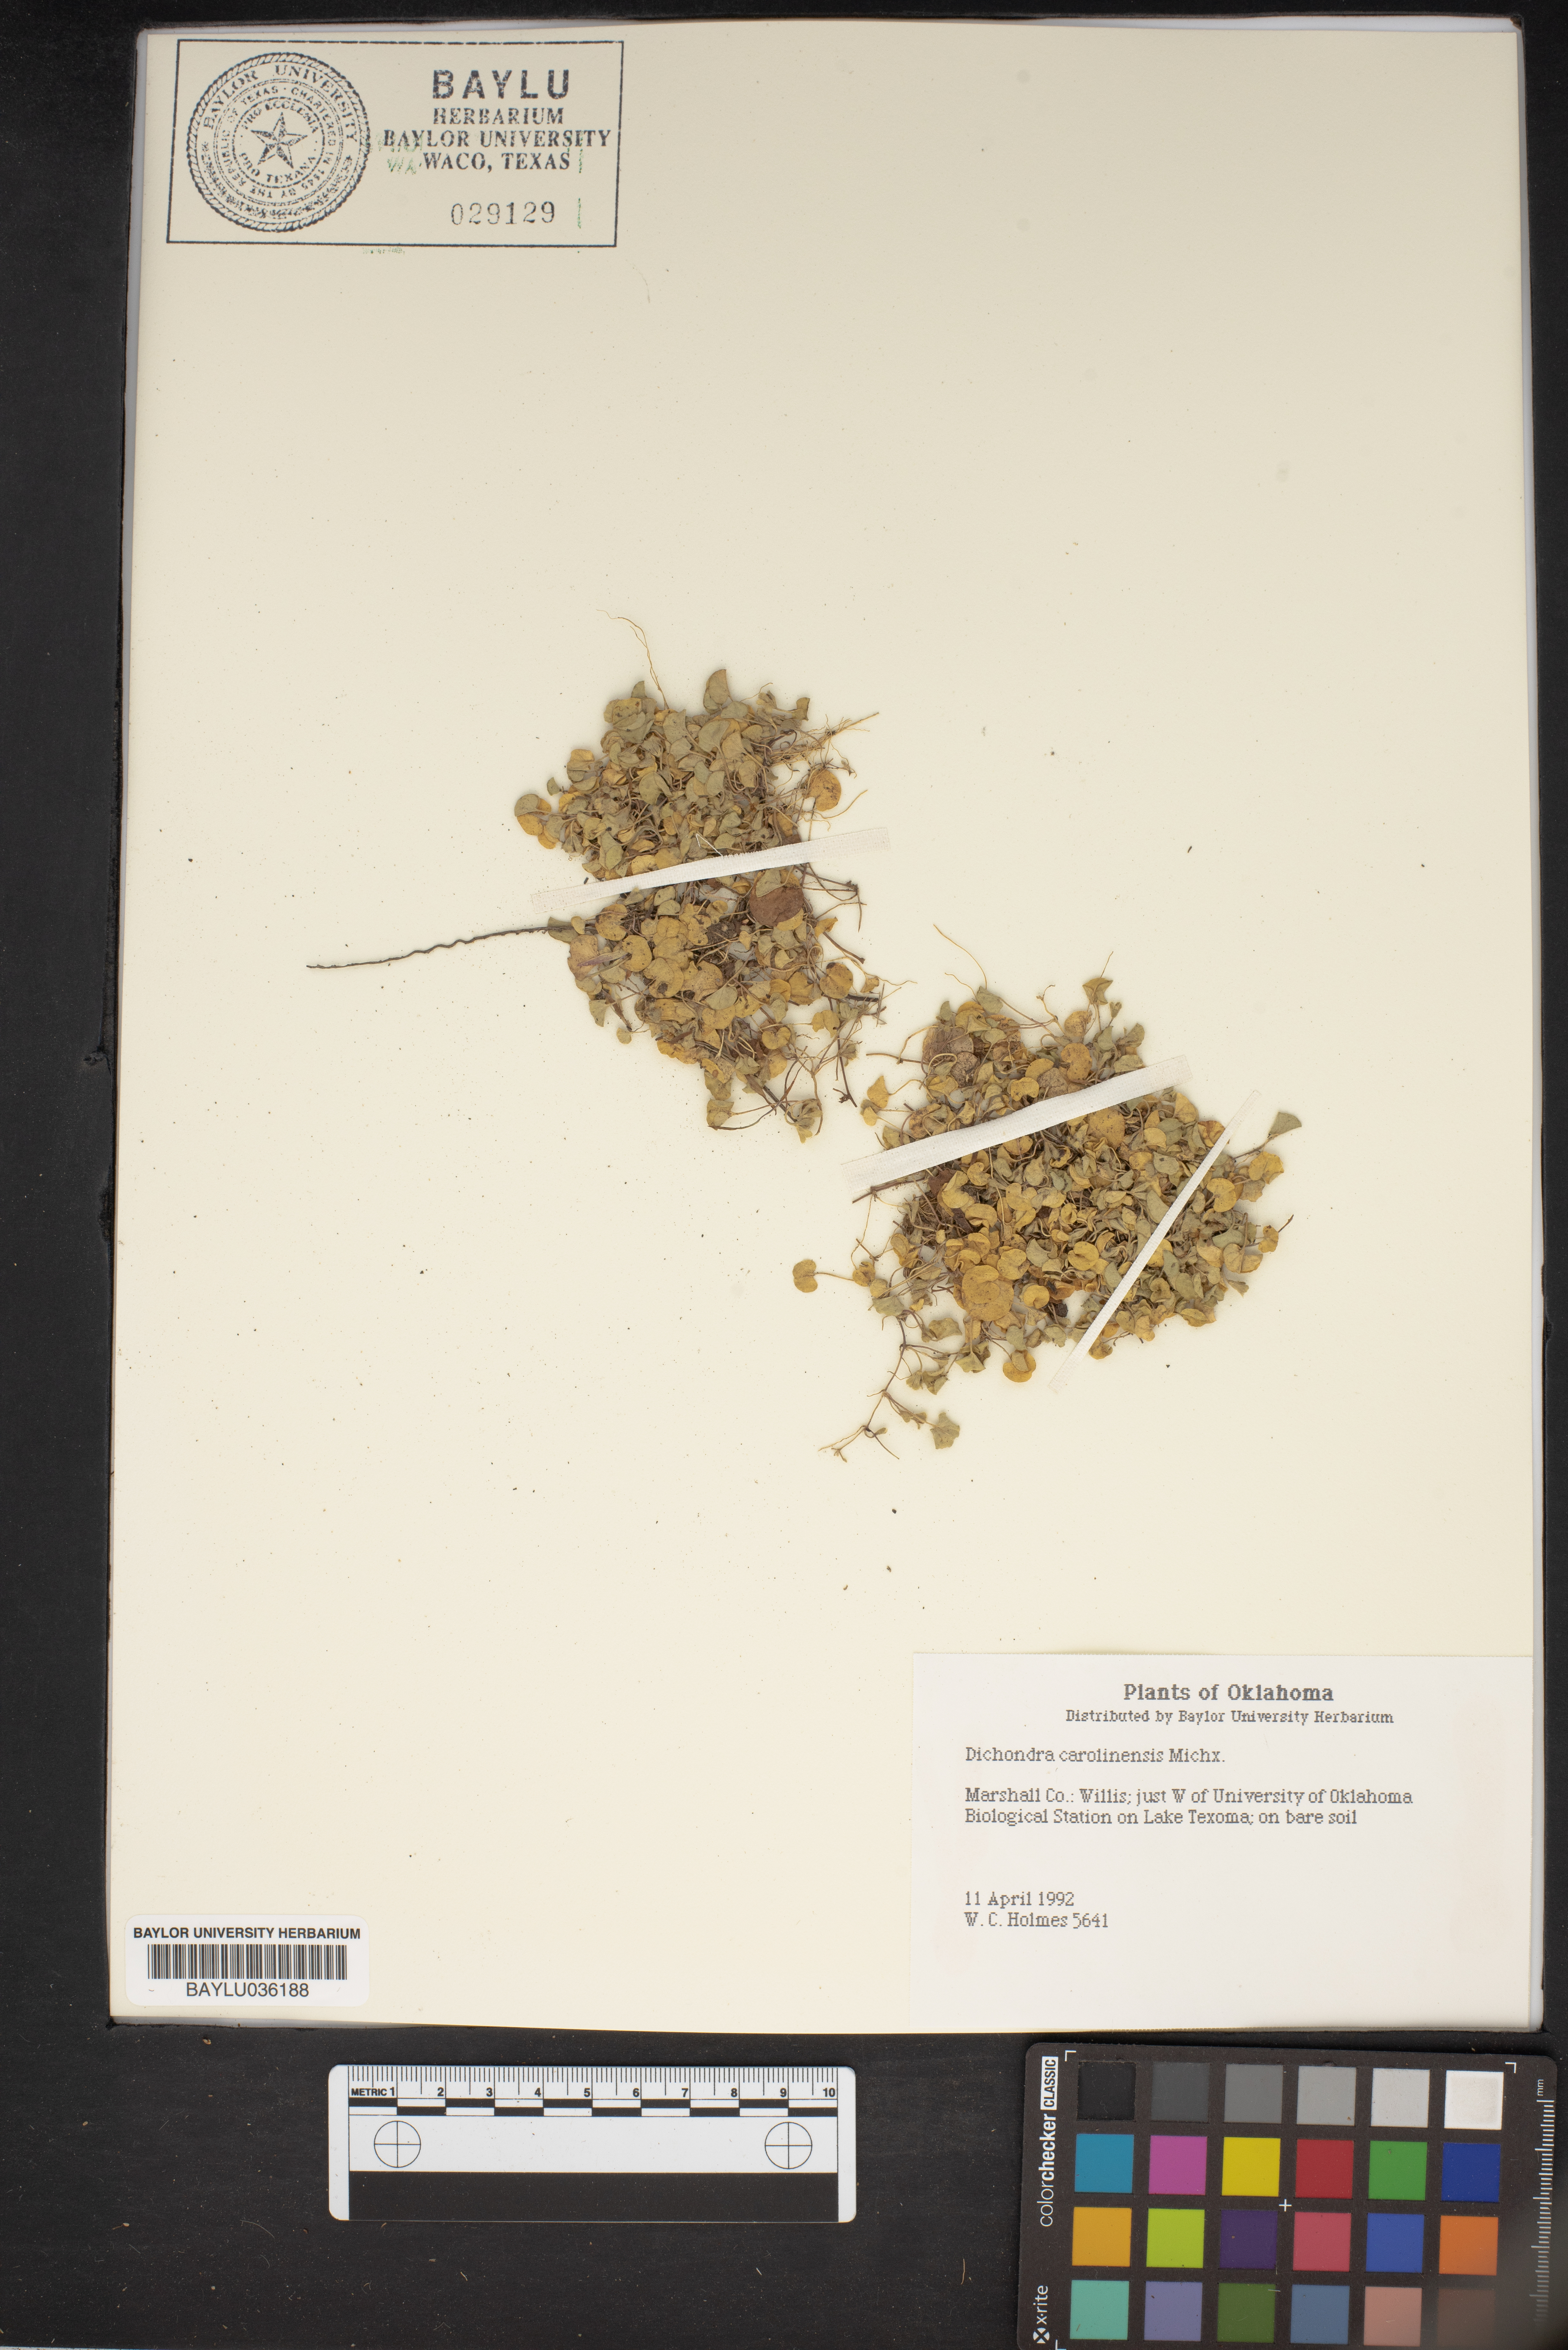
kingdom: Plantae
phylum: Tracheophyta
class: Magnoliopsida
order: Solanales
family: Convolvulaceae
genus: Dichondra
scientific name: Dichondra carolinensis
